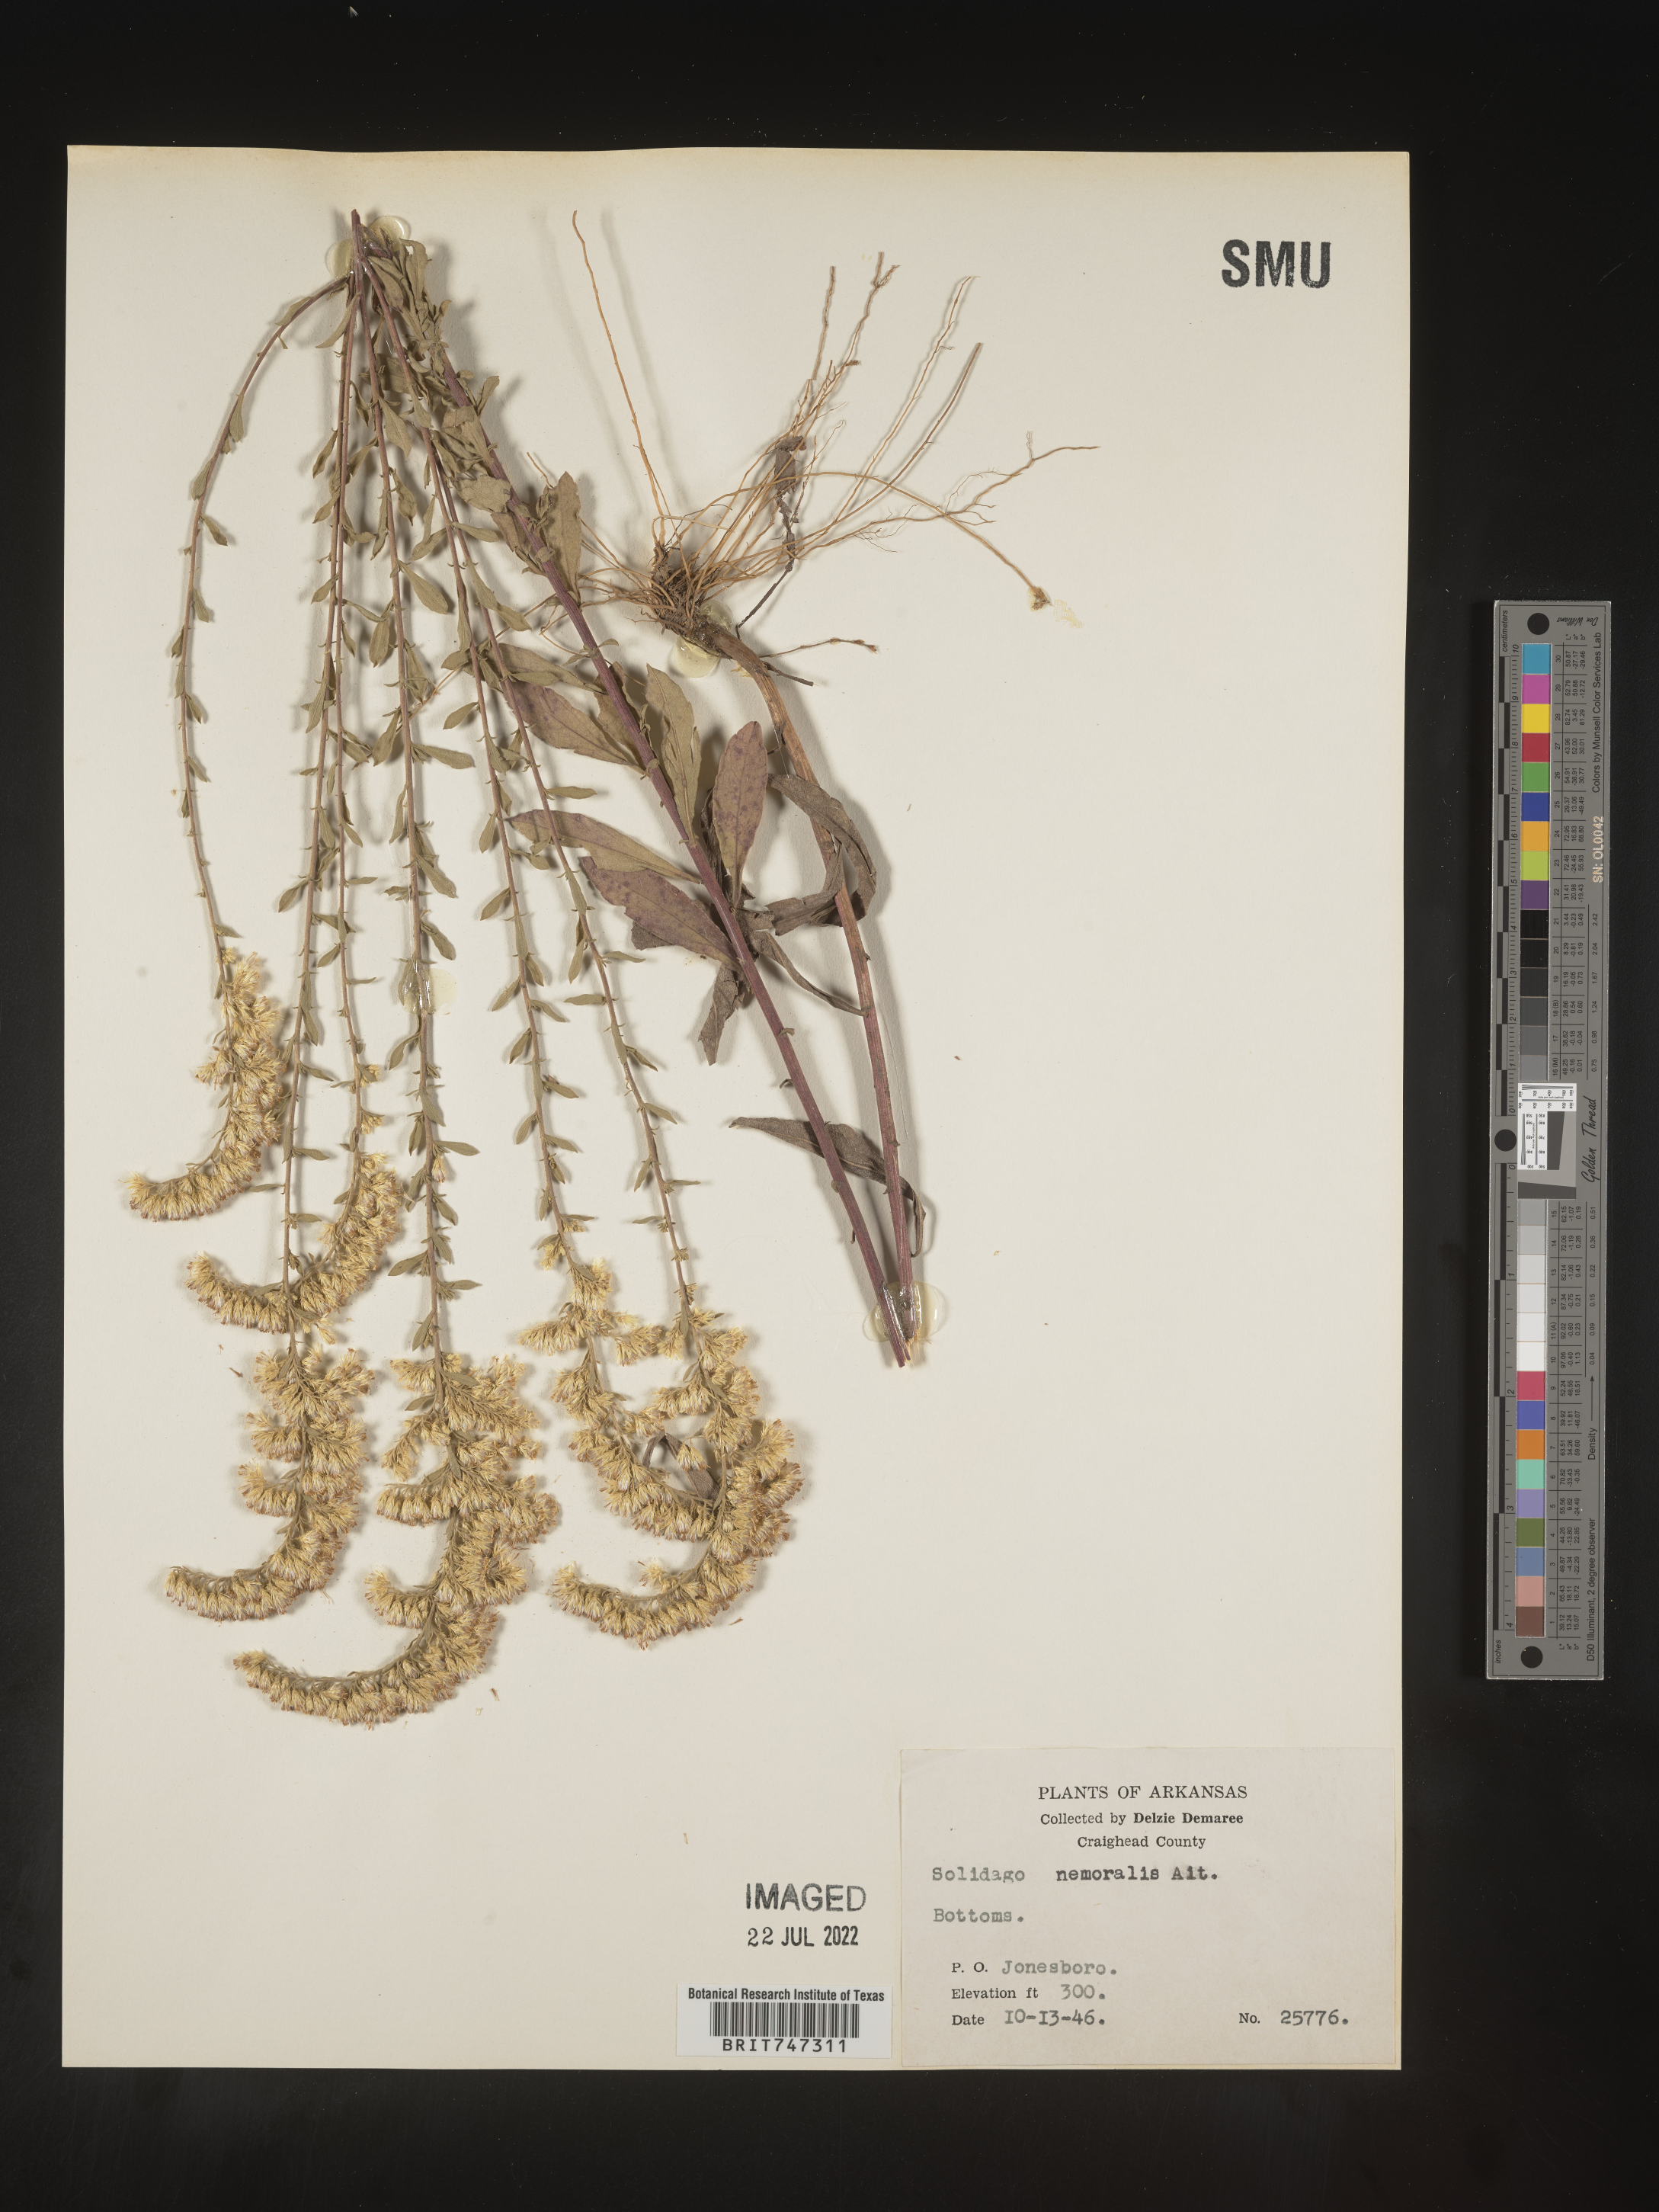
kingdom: Plantae
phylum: Tracheophyta
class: Magnoliopsida
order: Asterales
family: Asteraceae
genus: Solidago
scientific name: Solidago nemoralis
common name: Grey goldenrod
